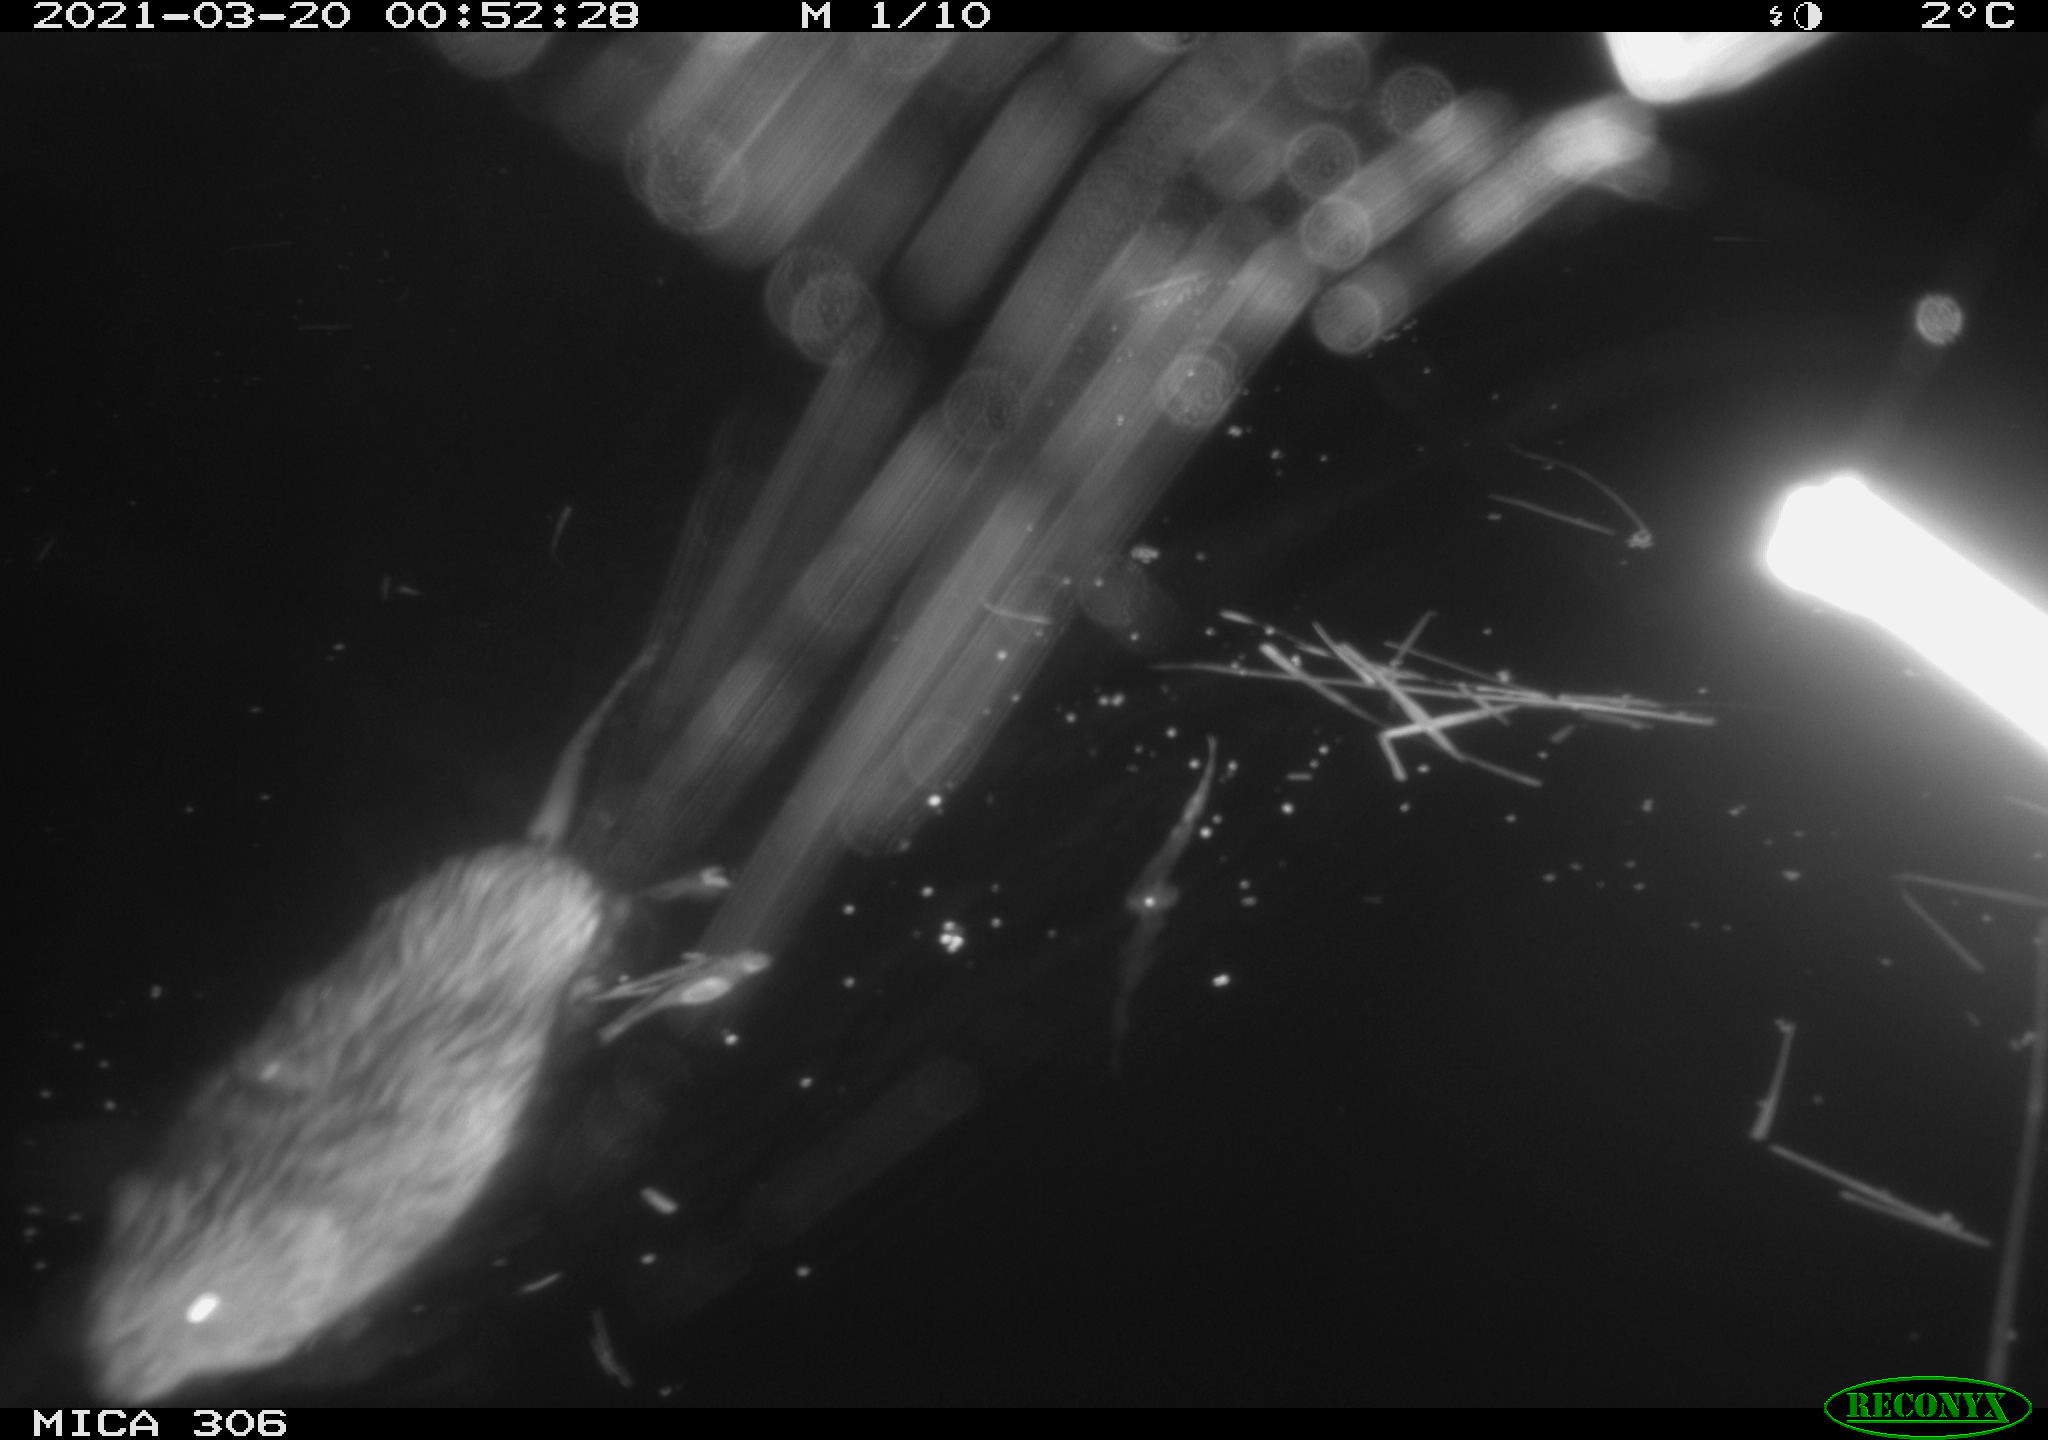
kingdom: Animalia
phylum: Chordata
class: Mammalia
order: Rodentia
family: Cricetidae
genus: Ondatra
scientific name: Ondatra zibethicus
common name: Muskrat
